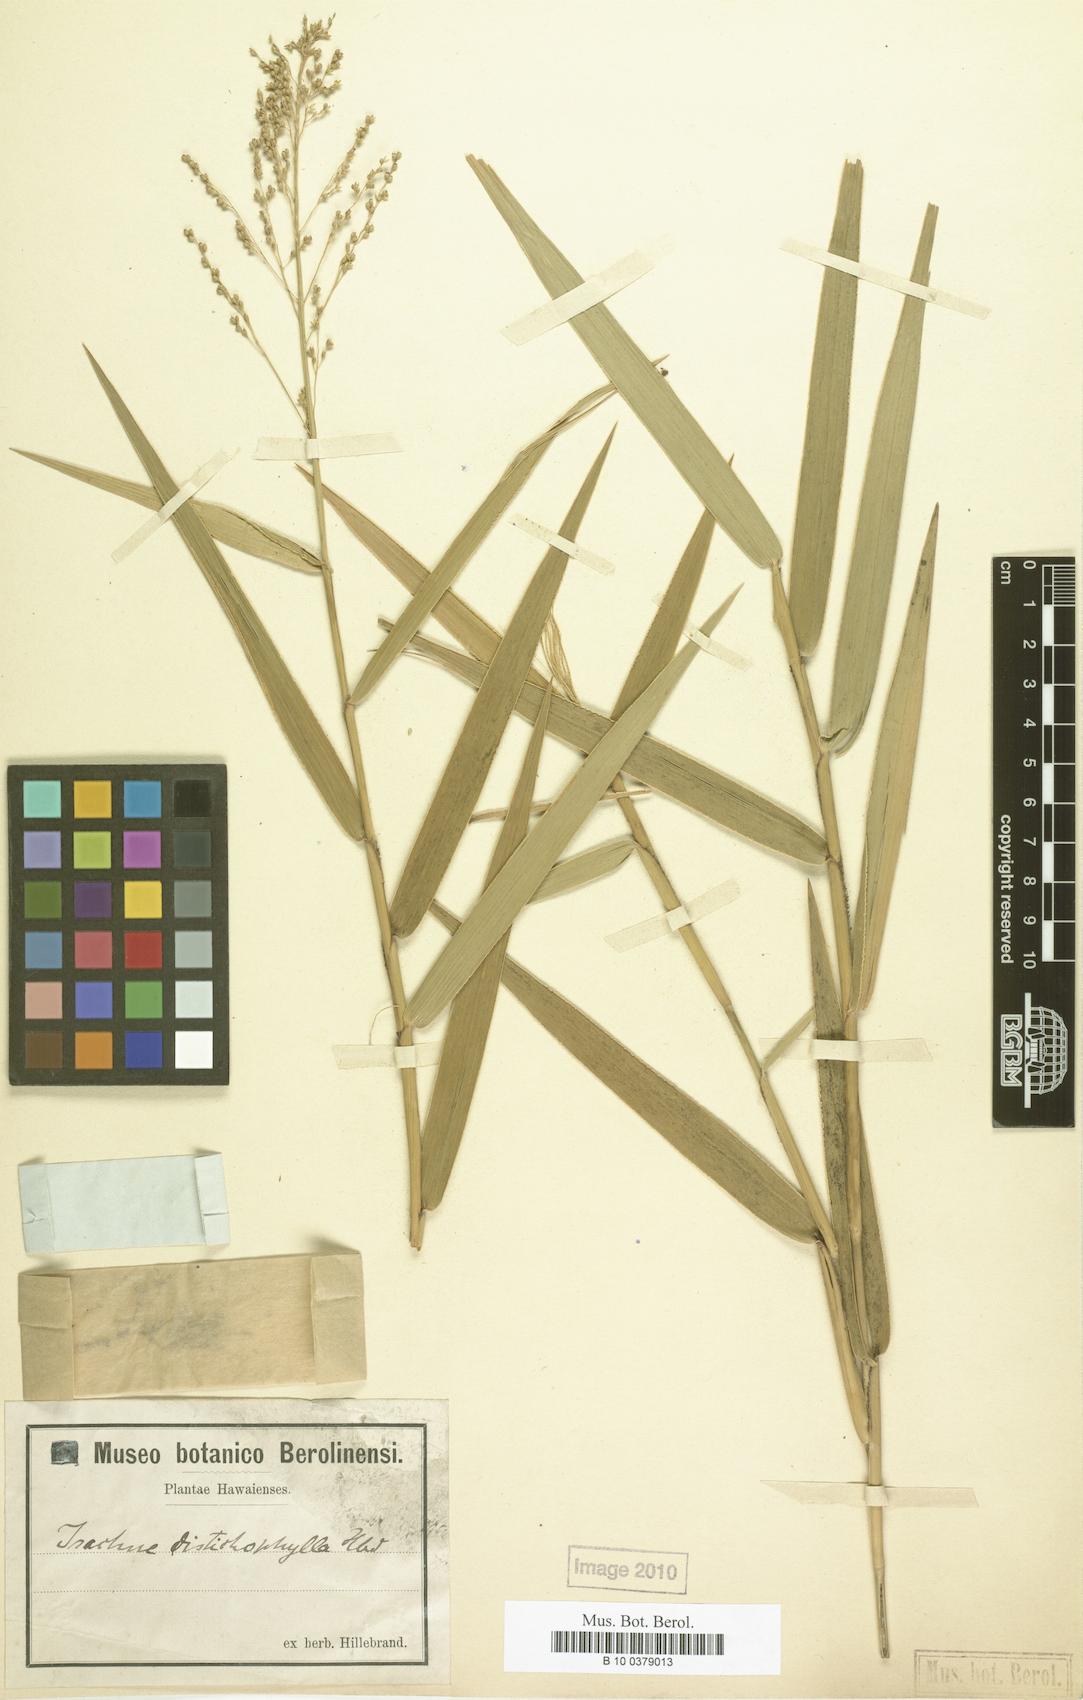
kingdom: Plantae
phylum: Tracheophyta
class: Liliopsida
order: Poales
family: Poaceae
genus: Isachne
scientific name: Isachne distichophylla
